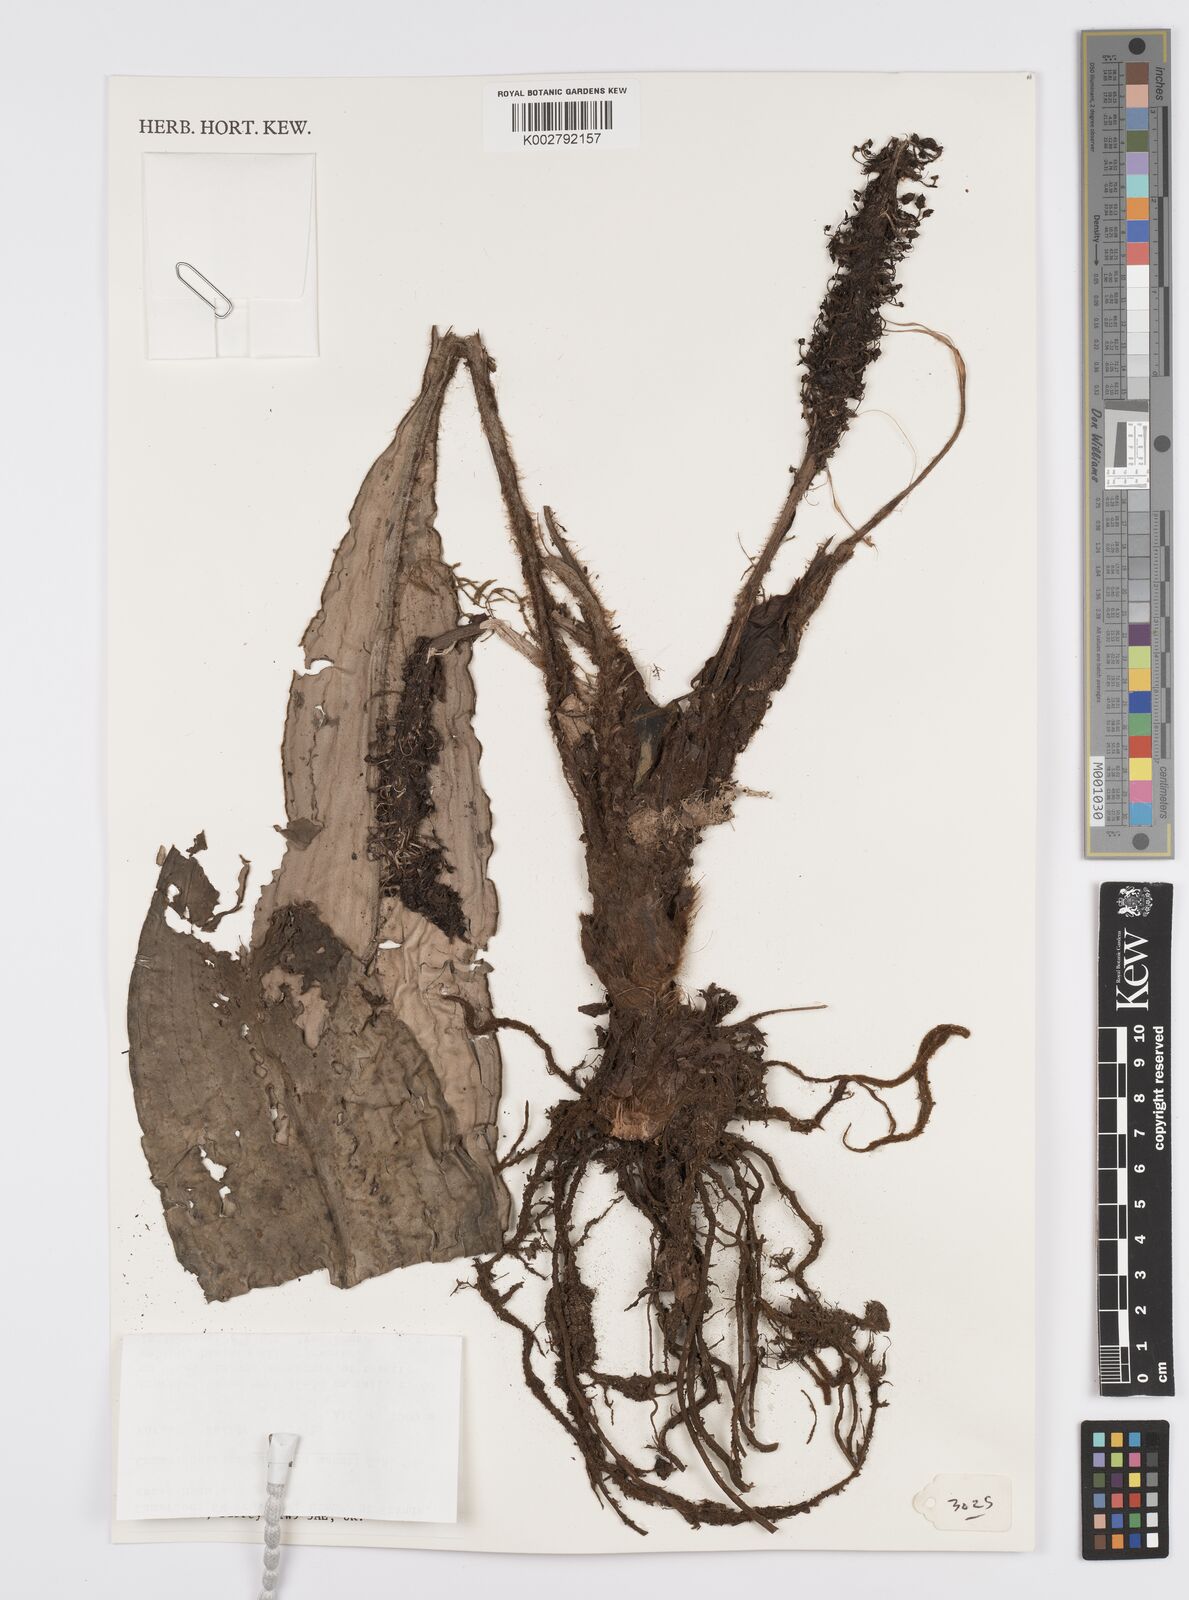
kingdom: Plantae
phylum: Tracheophyta
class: Liliopsida
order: Commelinales
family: Commelinaceae
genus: Palisota
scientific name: Palisota mannii
